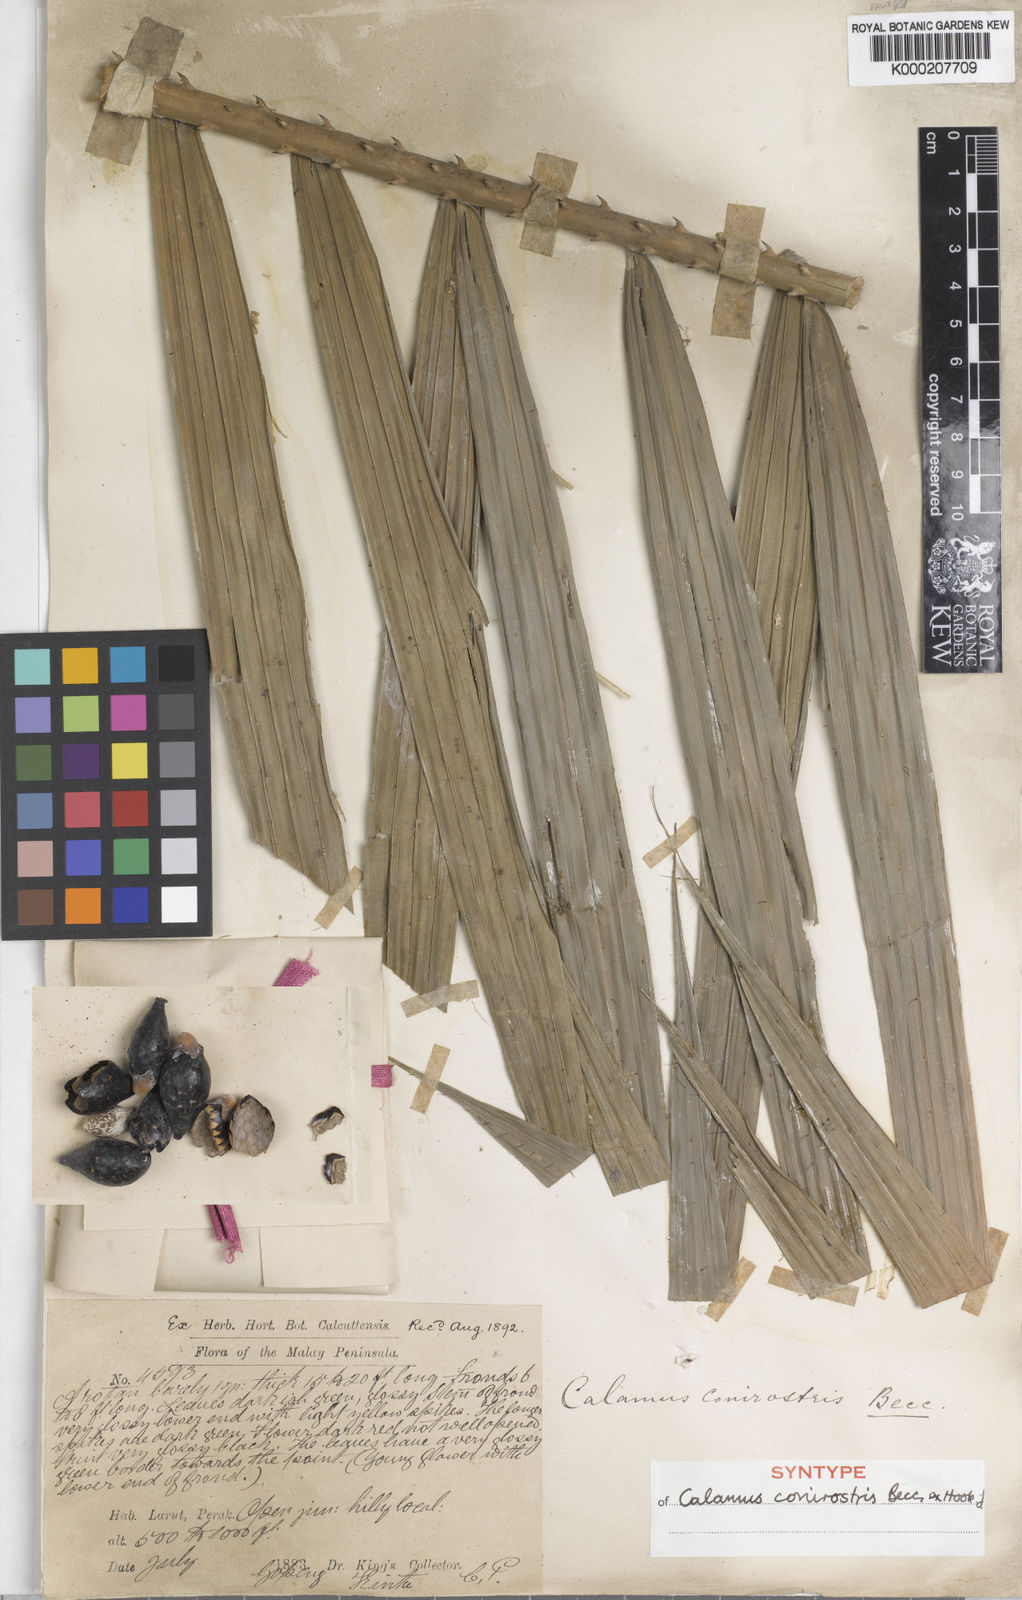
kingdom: Plantae
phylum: Tracheophyta
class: Liliopsida
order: Arecales
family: Arecaceae
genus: Calamus
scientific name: Calamus conirostris
